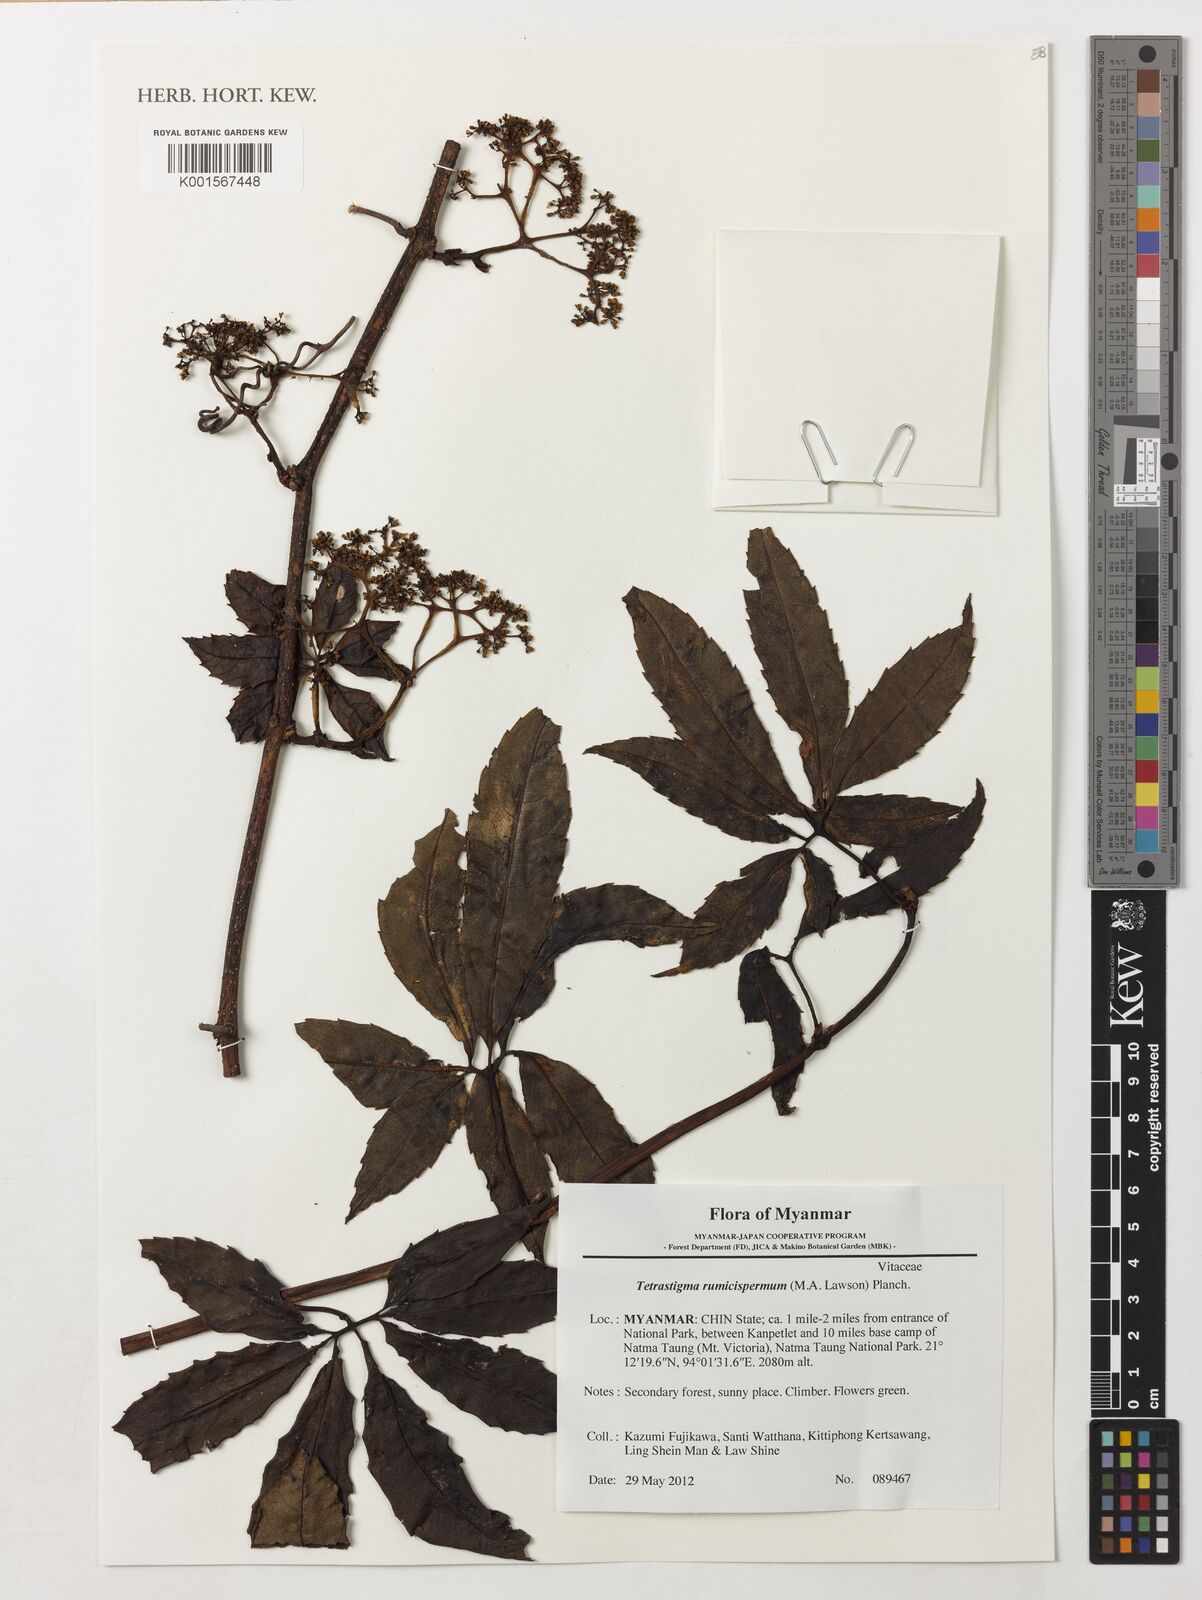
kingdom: Plantae
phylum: Tracheophyta
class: Magnoliopsida
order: Vitales
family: Vitaceae
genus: Tetrastigma
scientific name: Tetrastigma rumicispermum
